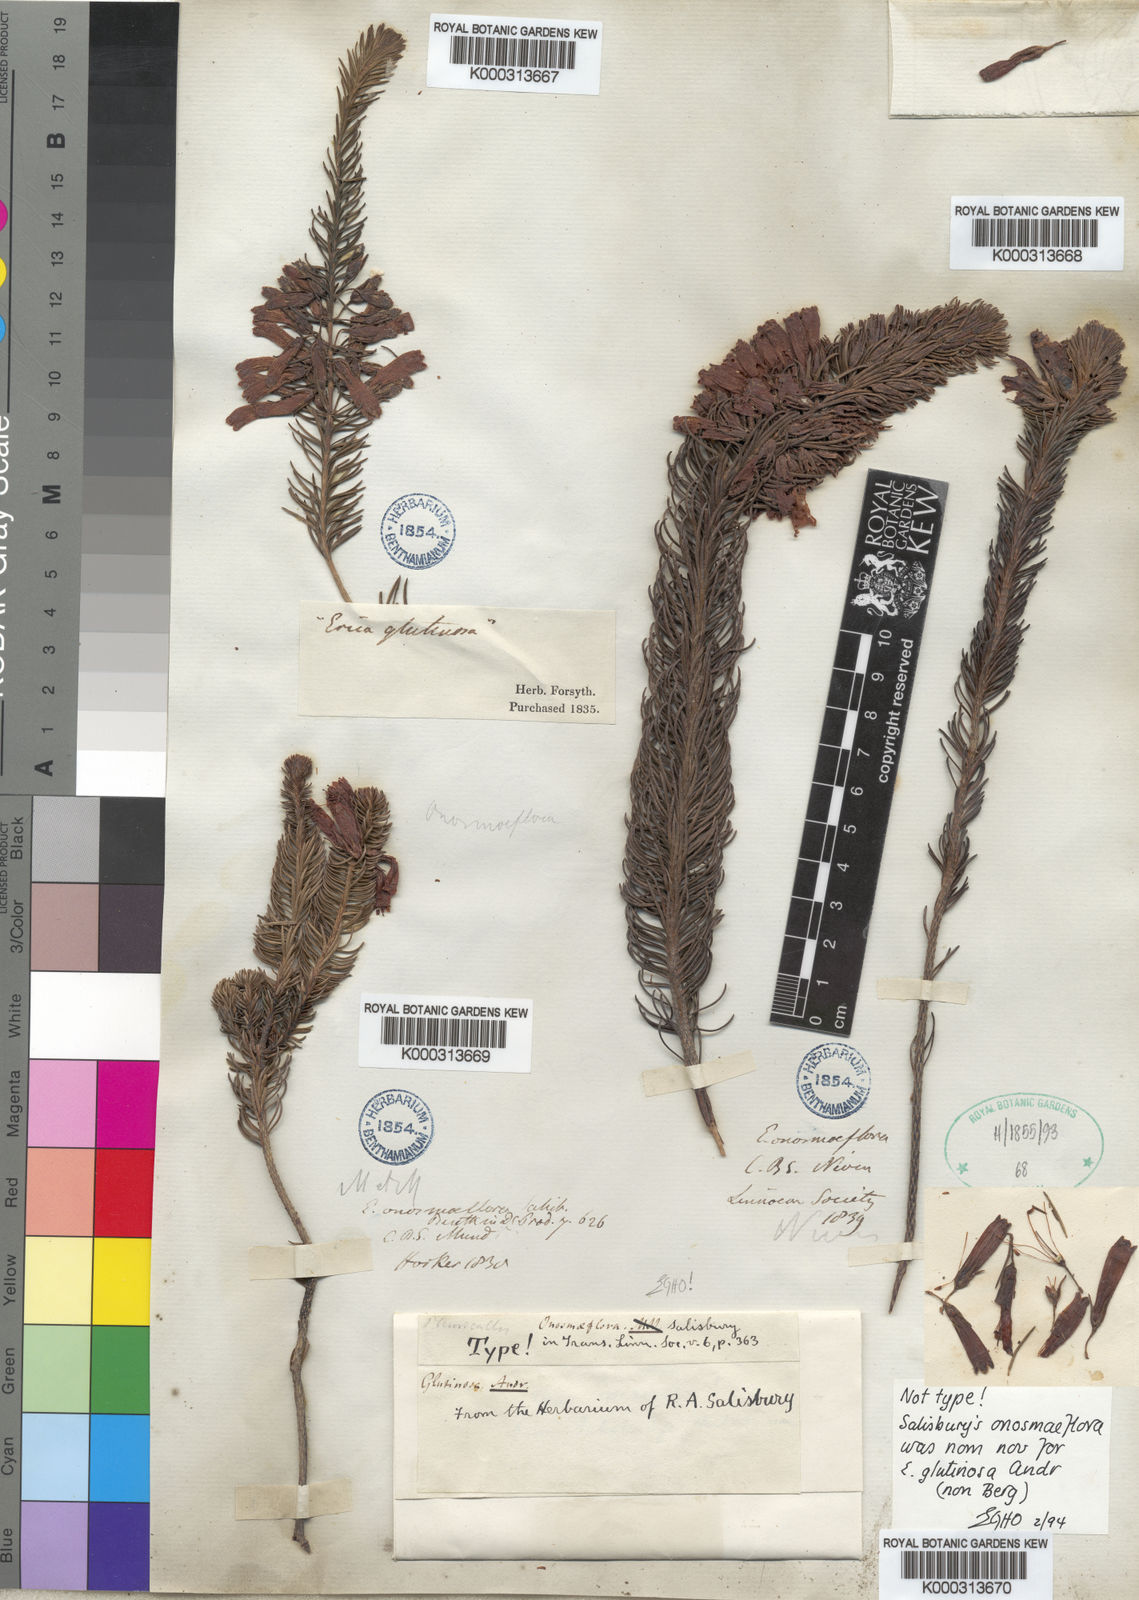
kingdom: Plantae
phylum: Tracheophyta
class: Magnoliopsida
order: Ericales
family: Ericaceae
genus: Erica
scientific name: Erica viscaria
